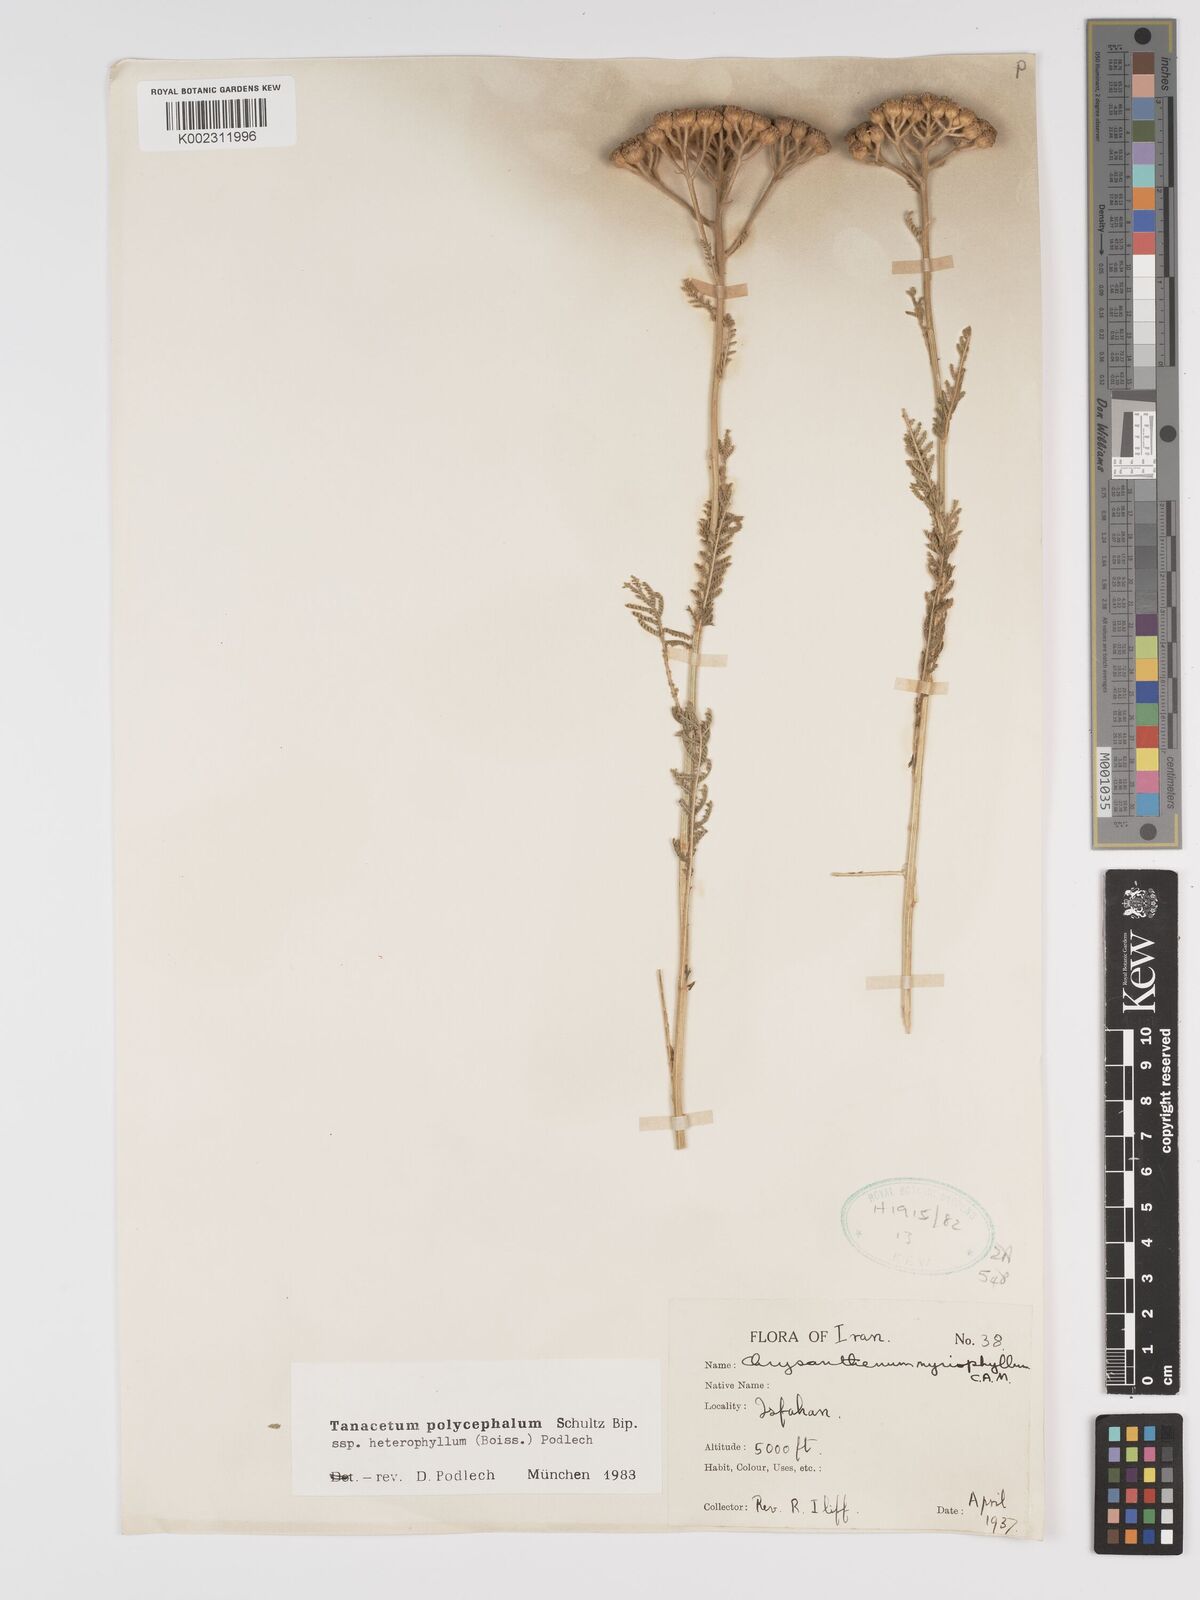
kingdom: Plantae
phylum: Tracheophyta
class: Magnoliopsida
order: Asterales
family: Asteraceae
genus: Tanacetum
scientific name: Tanacetum polycephalum
